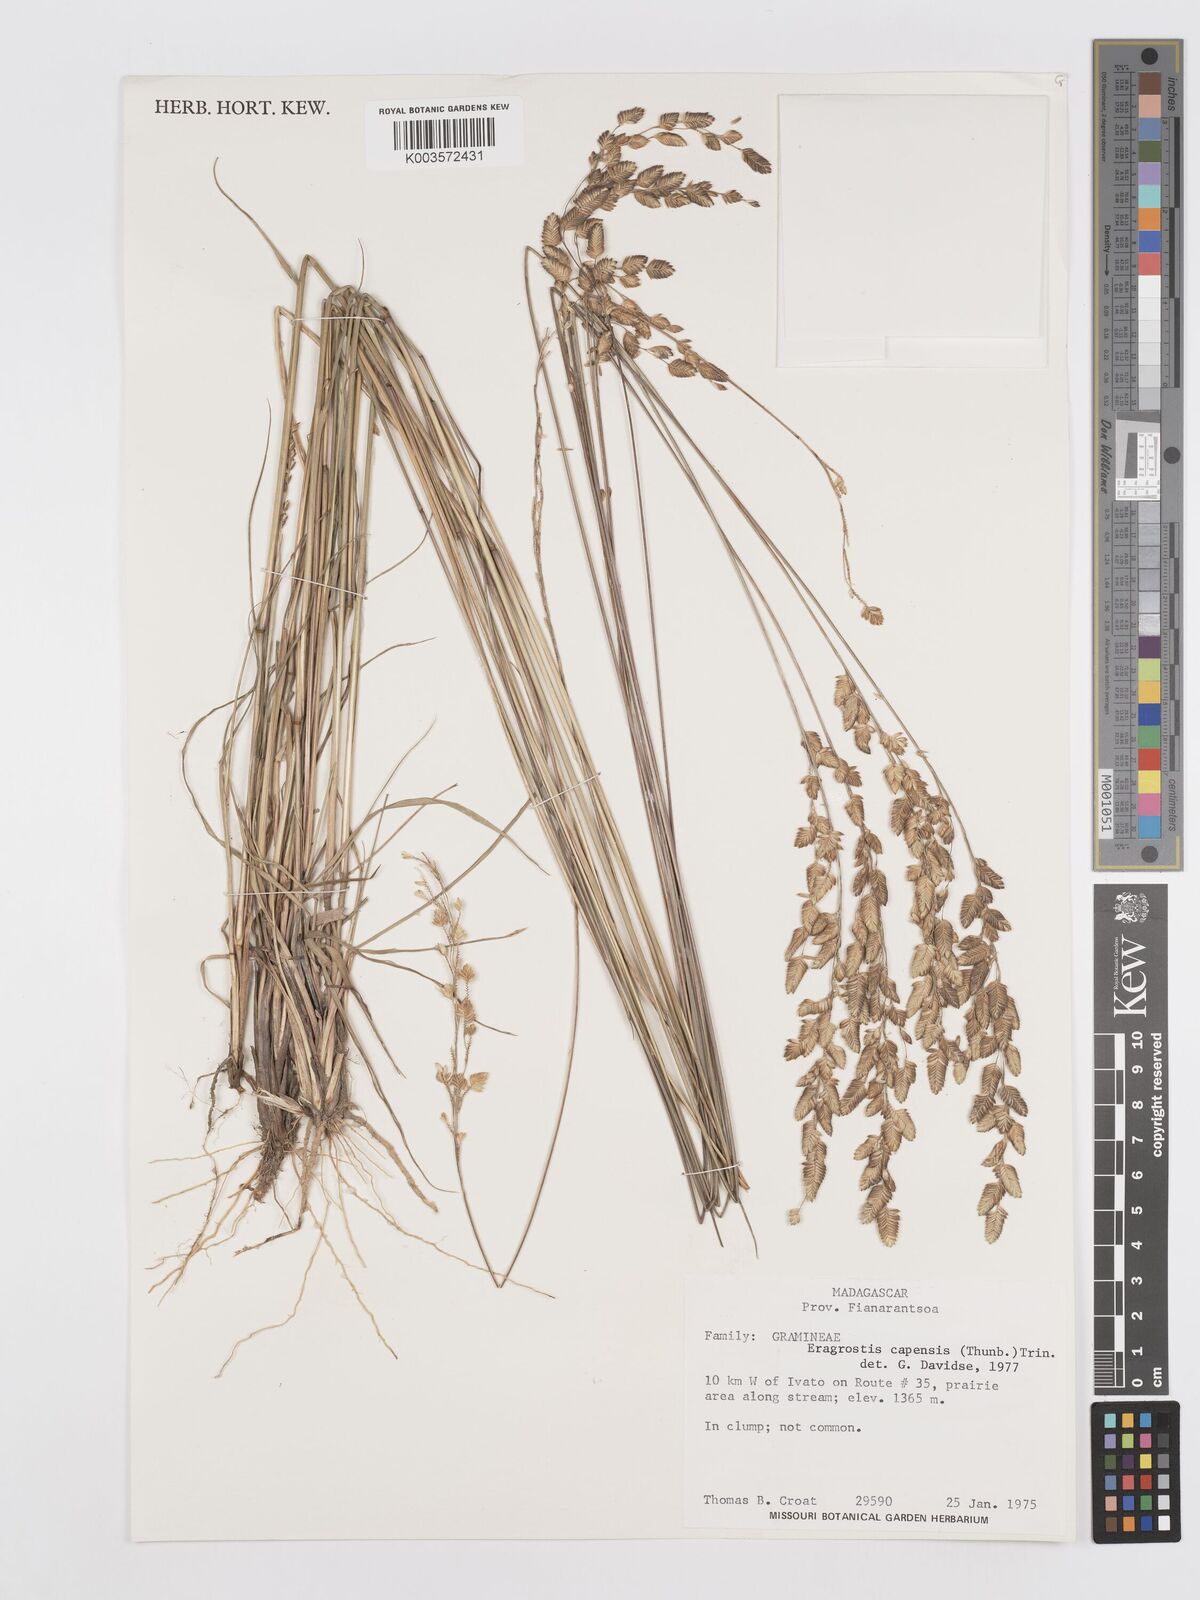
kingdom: Plantae
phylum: Tracheophyta
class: Liliopsida
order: Poales
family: Poaceae
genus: Eragrostis
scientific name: Eragrostis capensis
